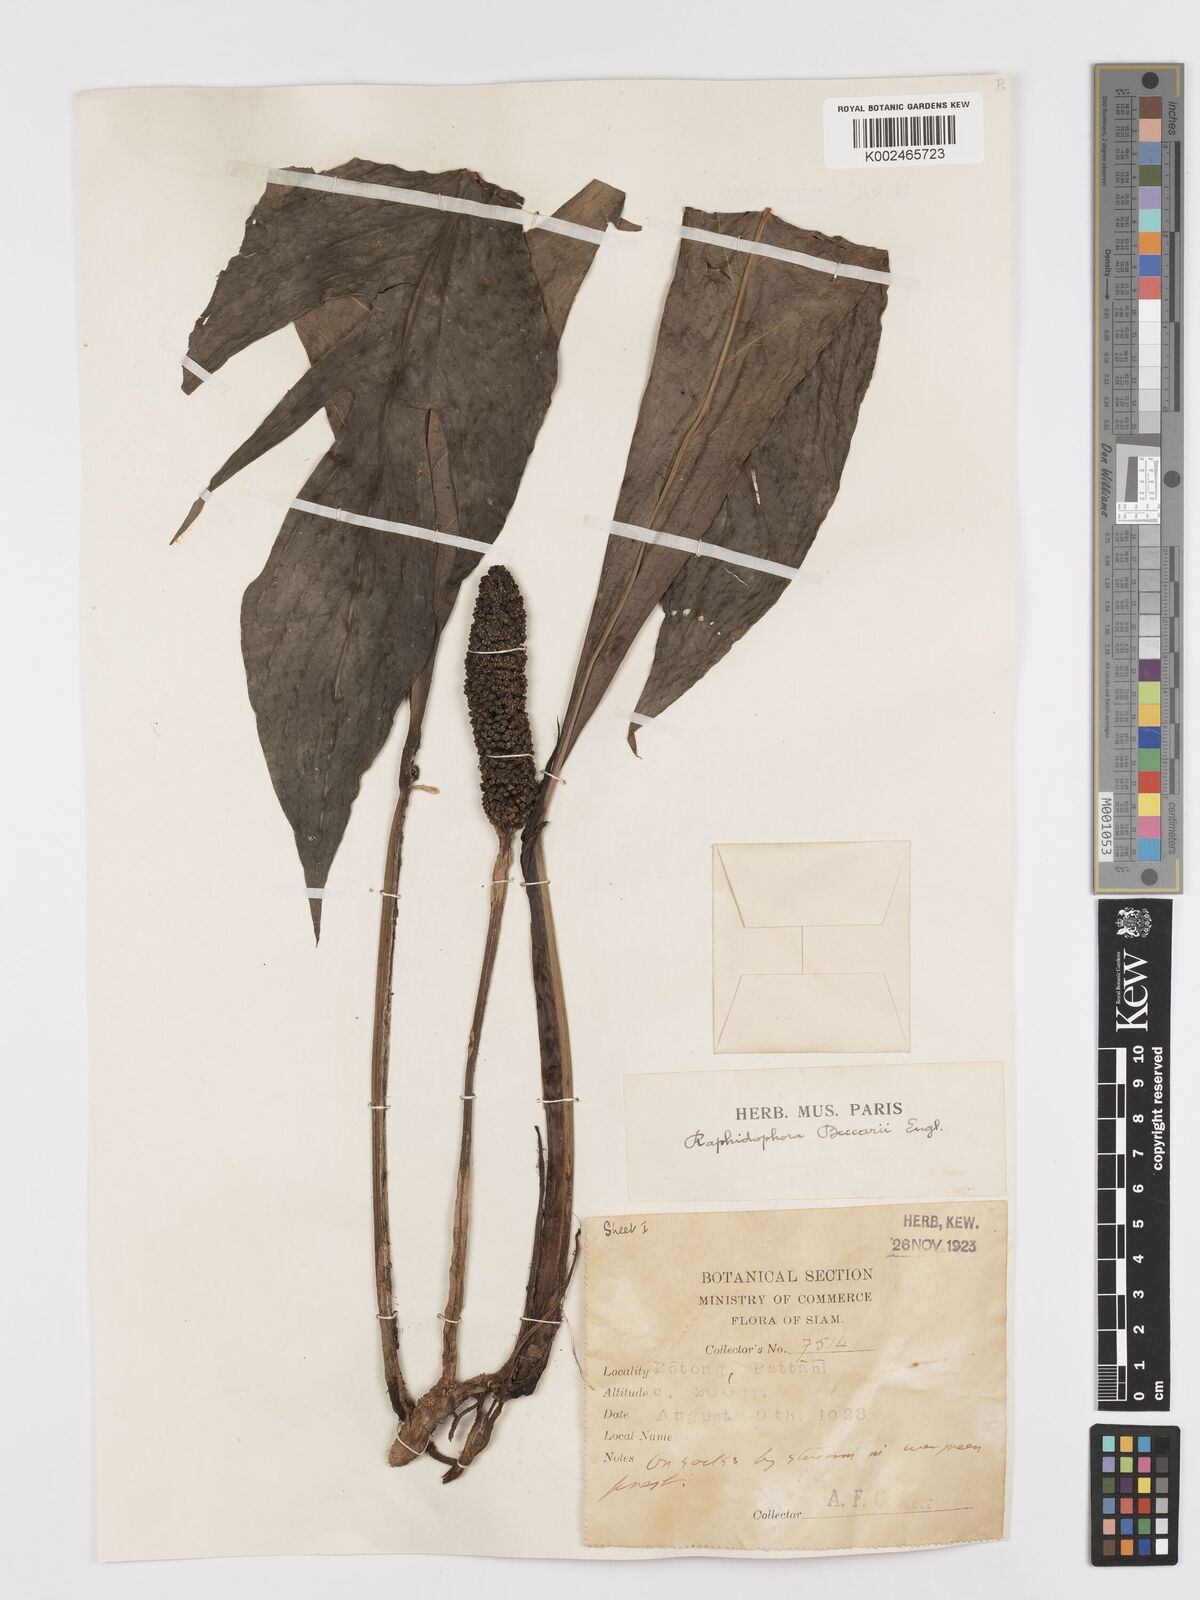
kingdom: Plantae
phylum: Tracheophyta
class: Liliopsida
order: Alismatales
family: Araceae
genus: Rhaphidophora
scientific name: Rhaphidophora beccarii
